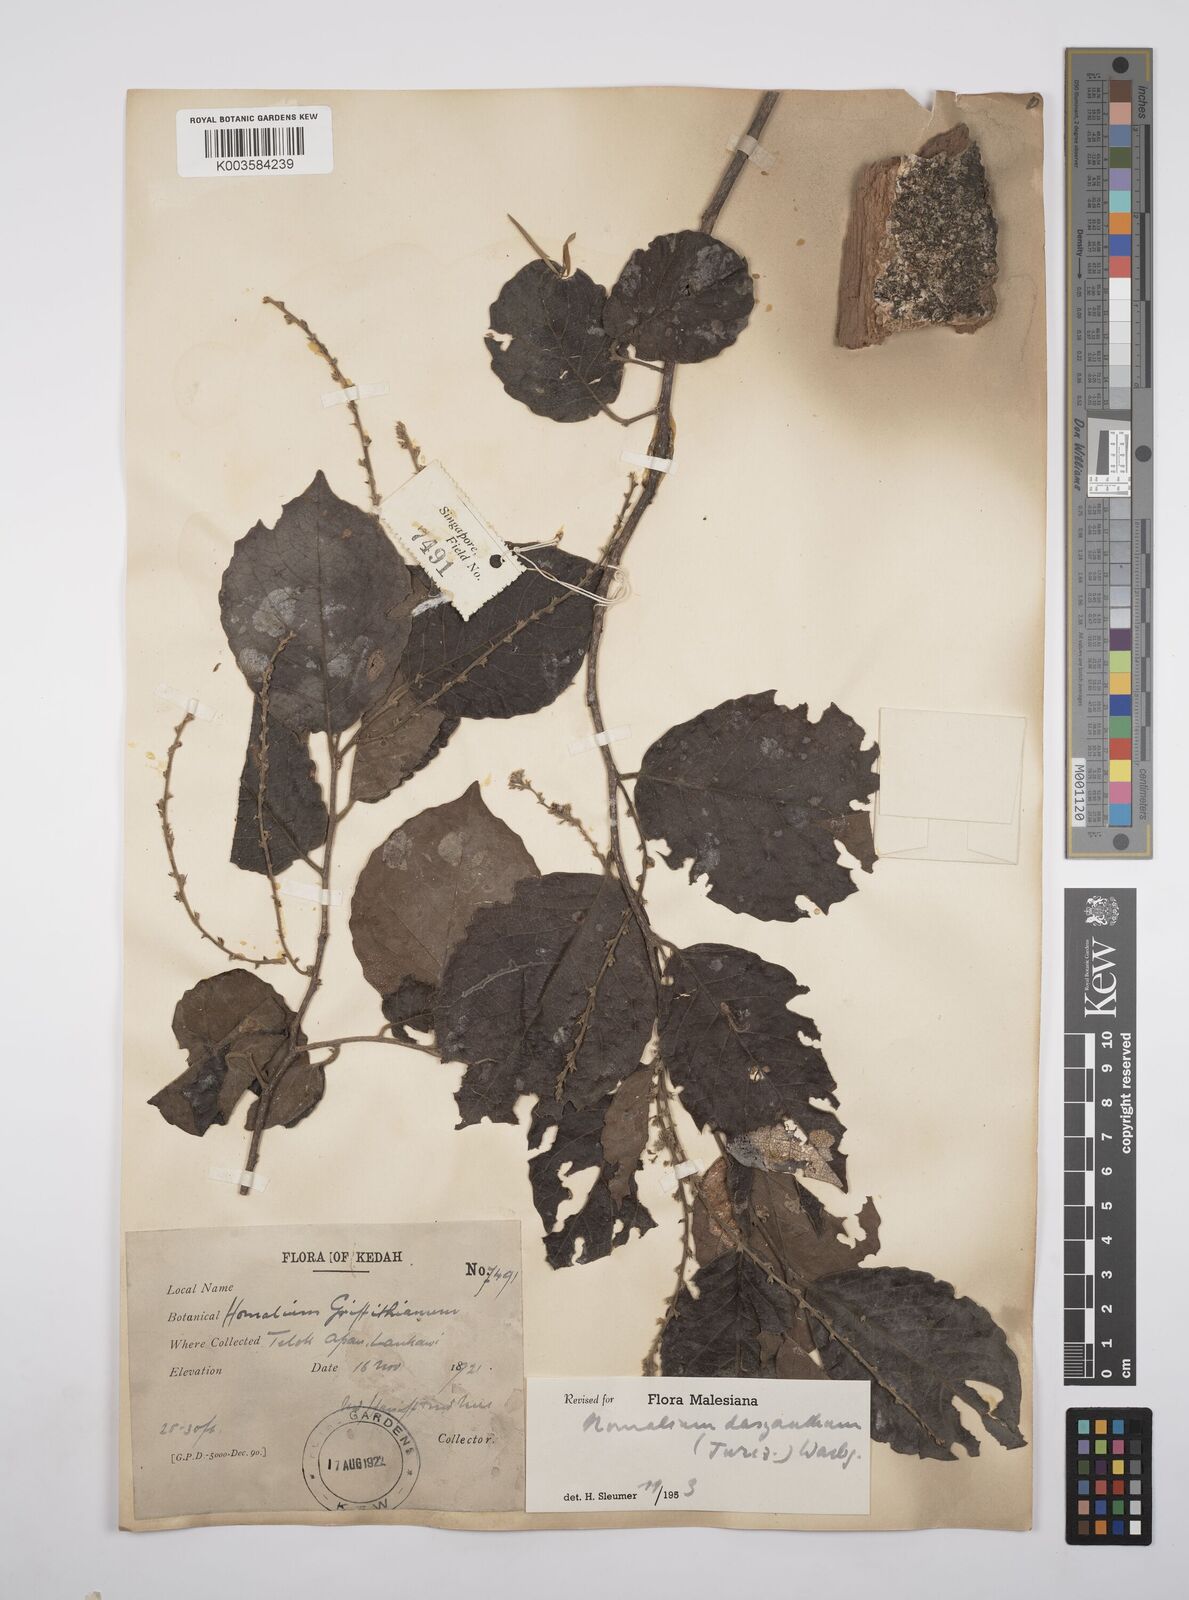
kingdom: Plantae
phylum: Tracheophyta
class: Magnoliopsida
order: Malpighiales
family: Salicaceae
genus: Homalium
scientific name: Homalium dasyanthum
